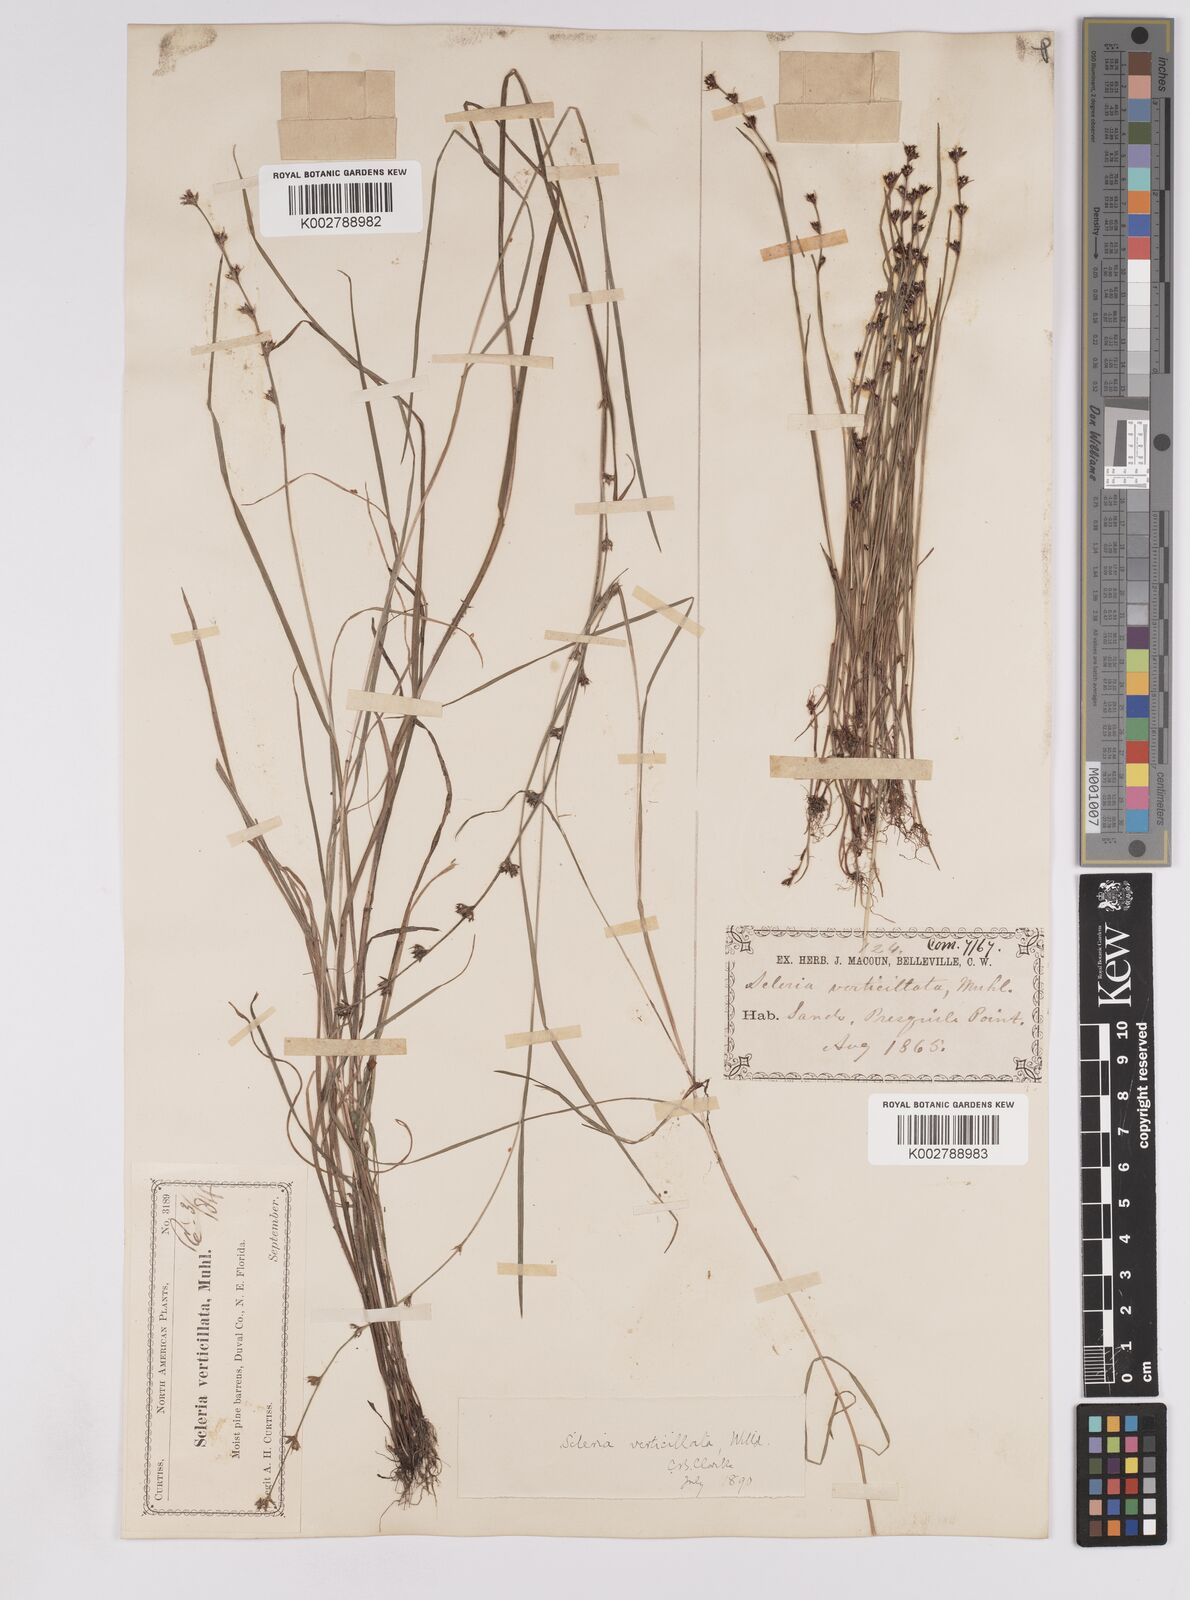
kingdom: Plantae
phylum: Tracheophyta
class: Liliopsida
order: Poales
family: Cyperaceae
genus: Scleria
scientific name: Scleria verticillata
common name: Low nutrush
